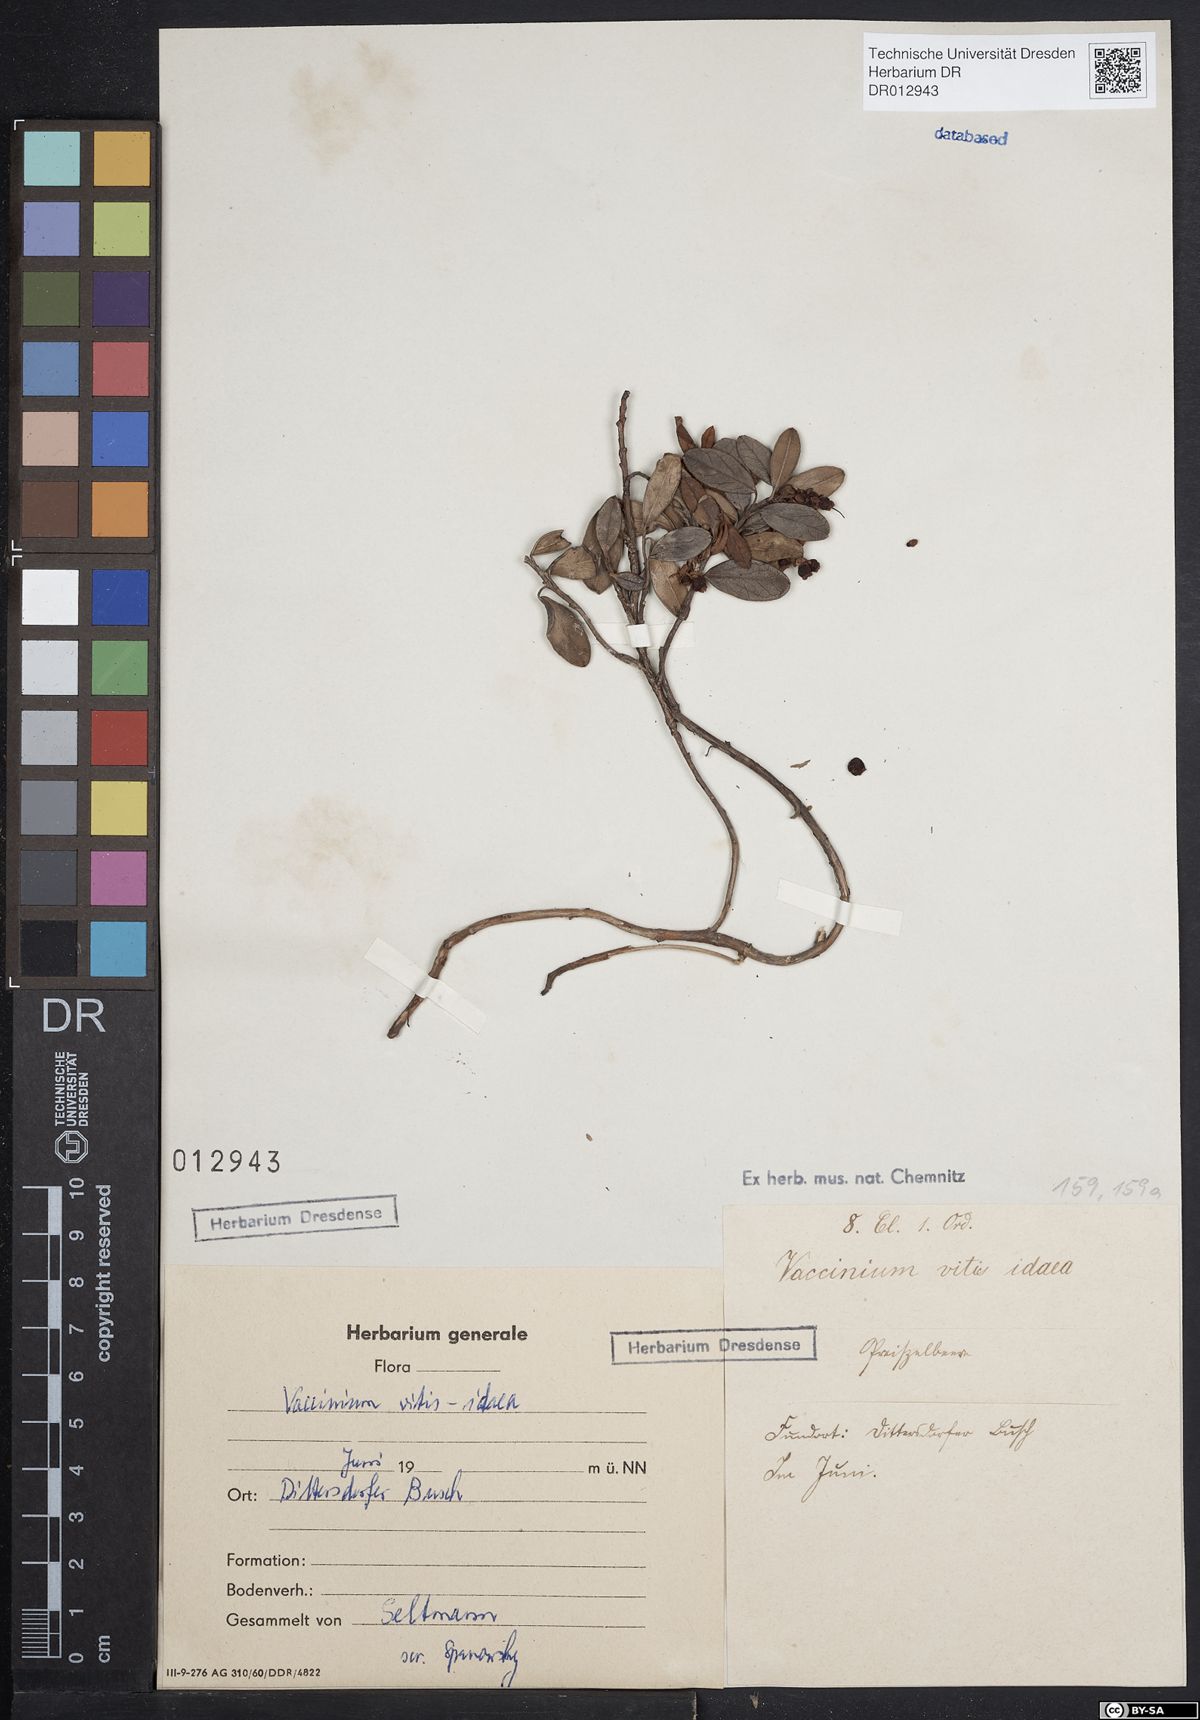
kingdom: Plantae
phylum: Tracheophyta
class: Magnoliopsida
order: Ericales
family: Ericaceae
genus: Vaccinium
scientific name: Vaccinium vitis-idaea
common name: Cowberry
